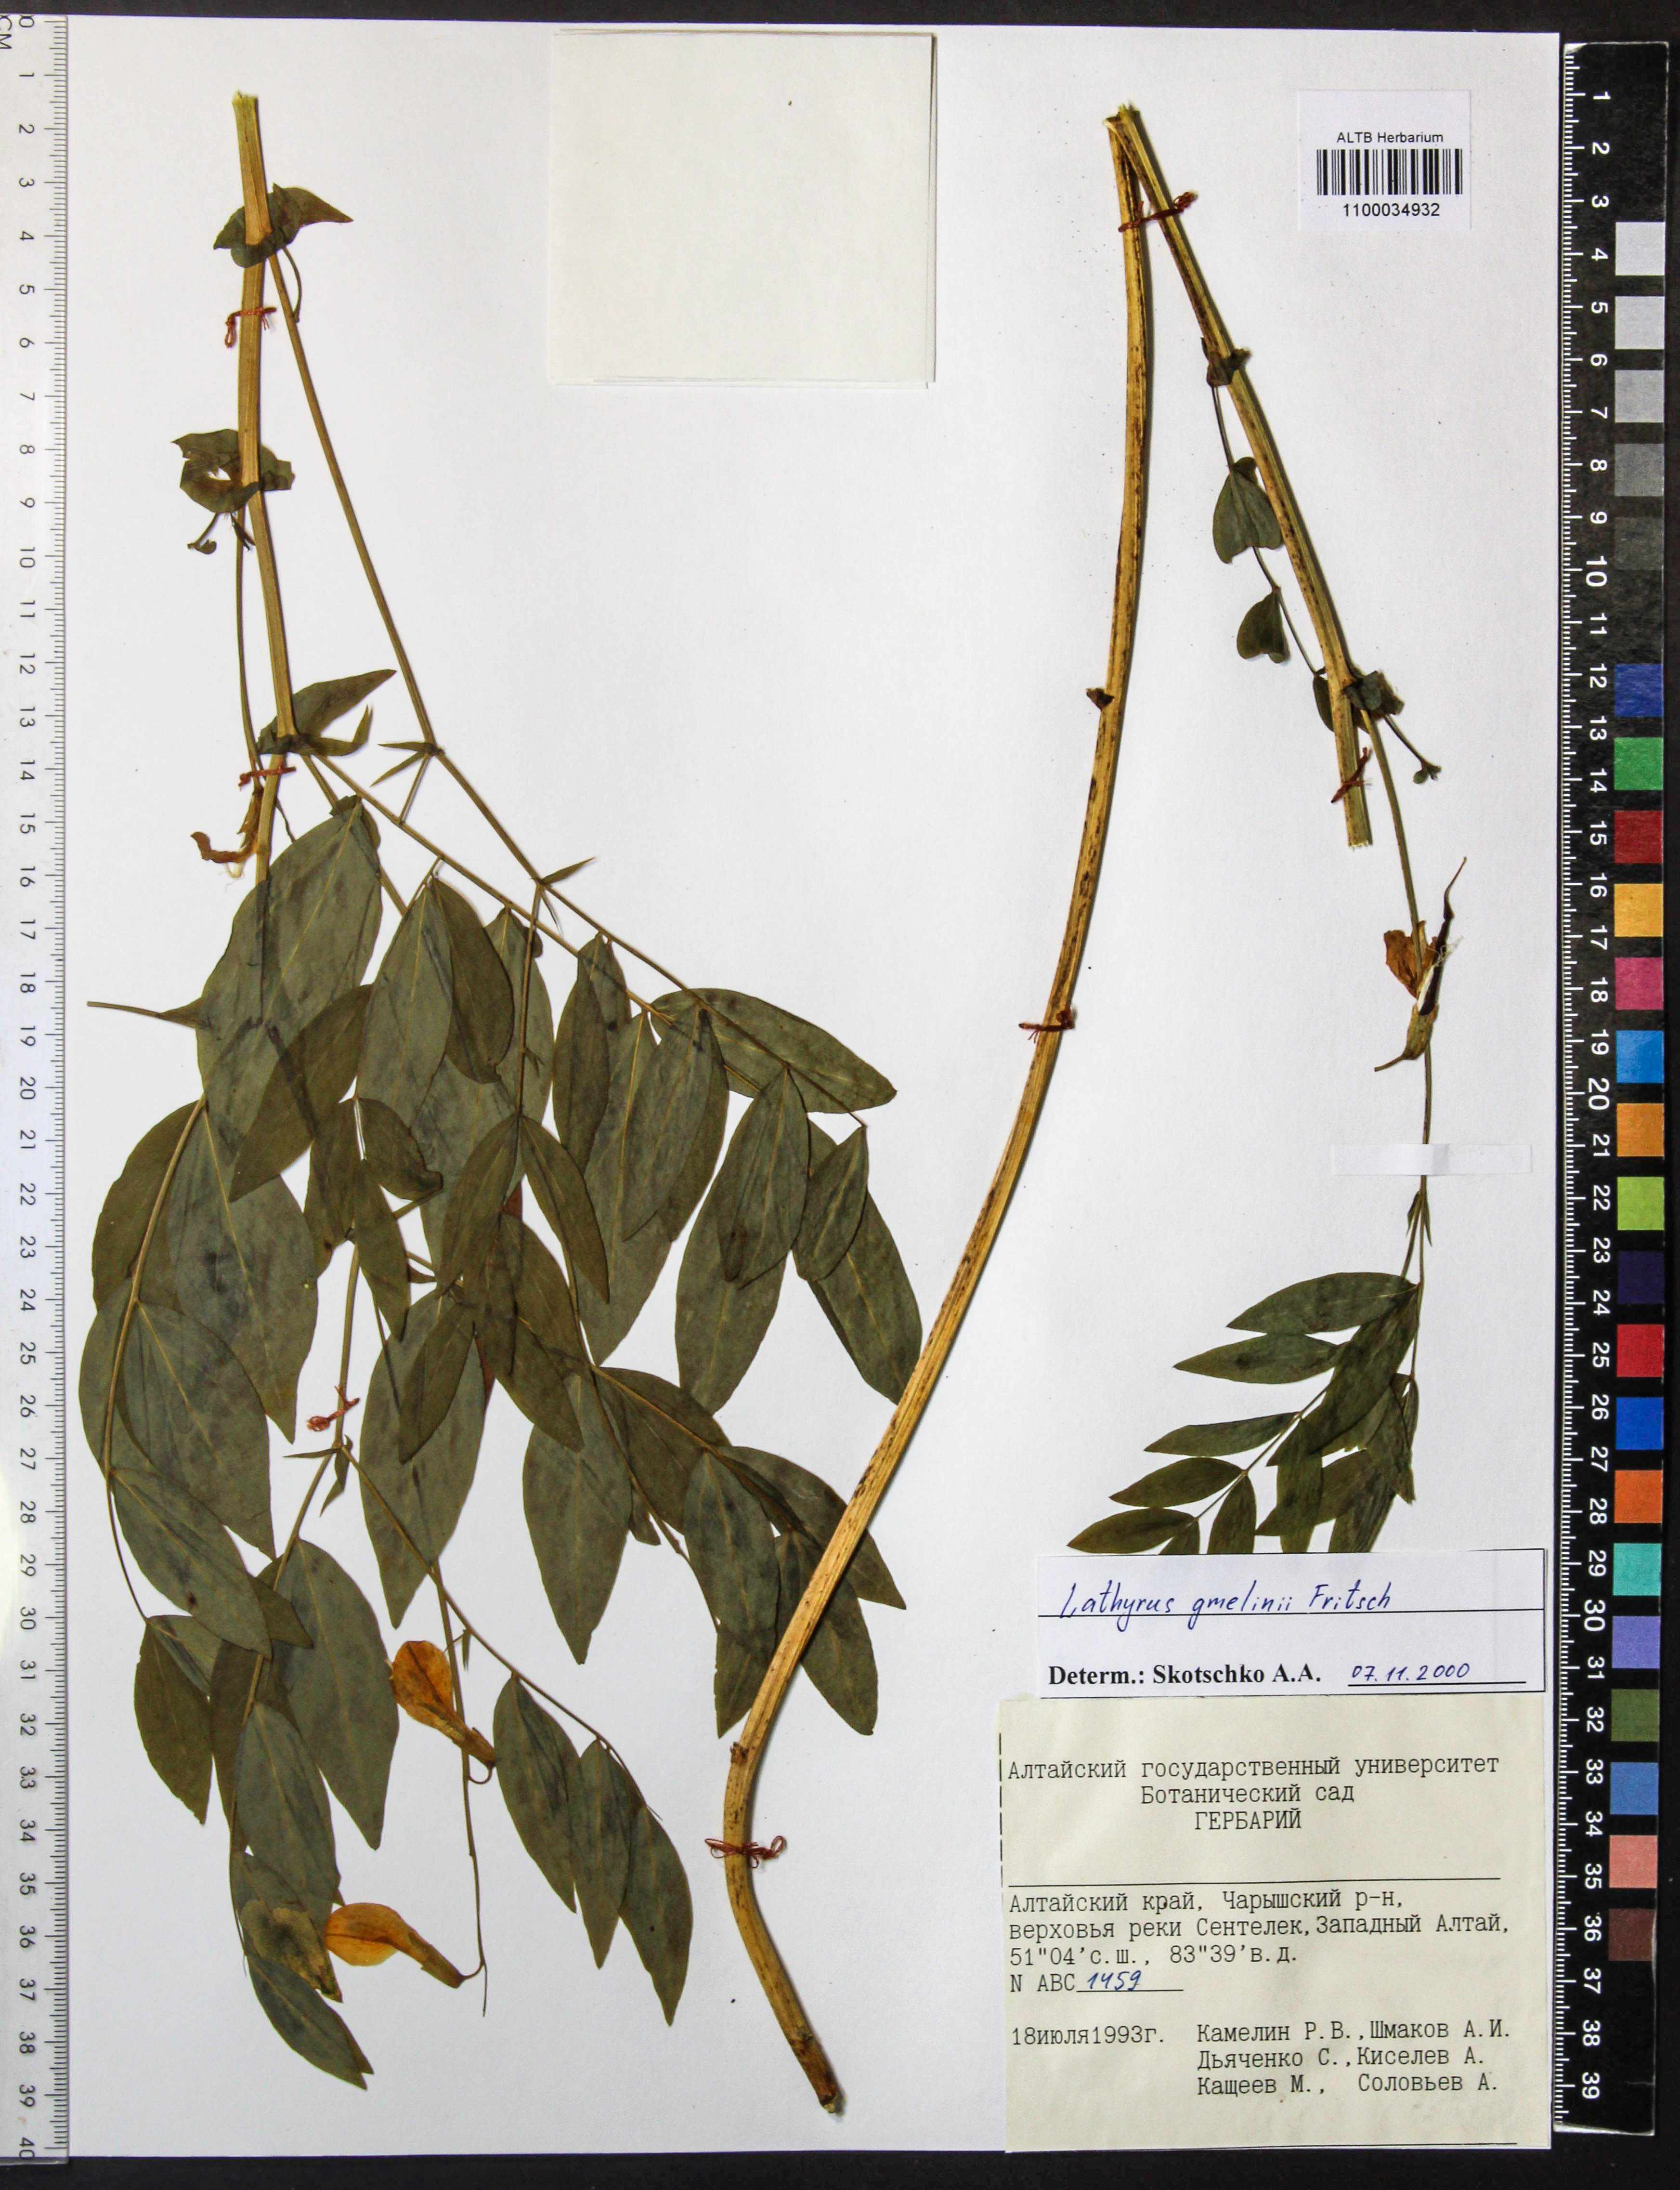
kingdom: Plantae
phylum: Tracheophyta
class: Magnoliopsida
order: Fabales
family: Fabaceae
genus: Lathyrus
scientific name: Lathyrus gmelinii
